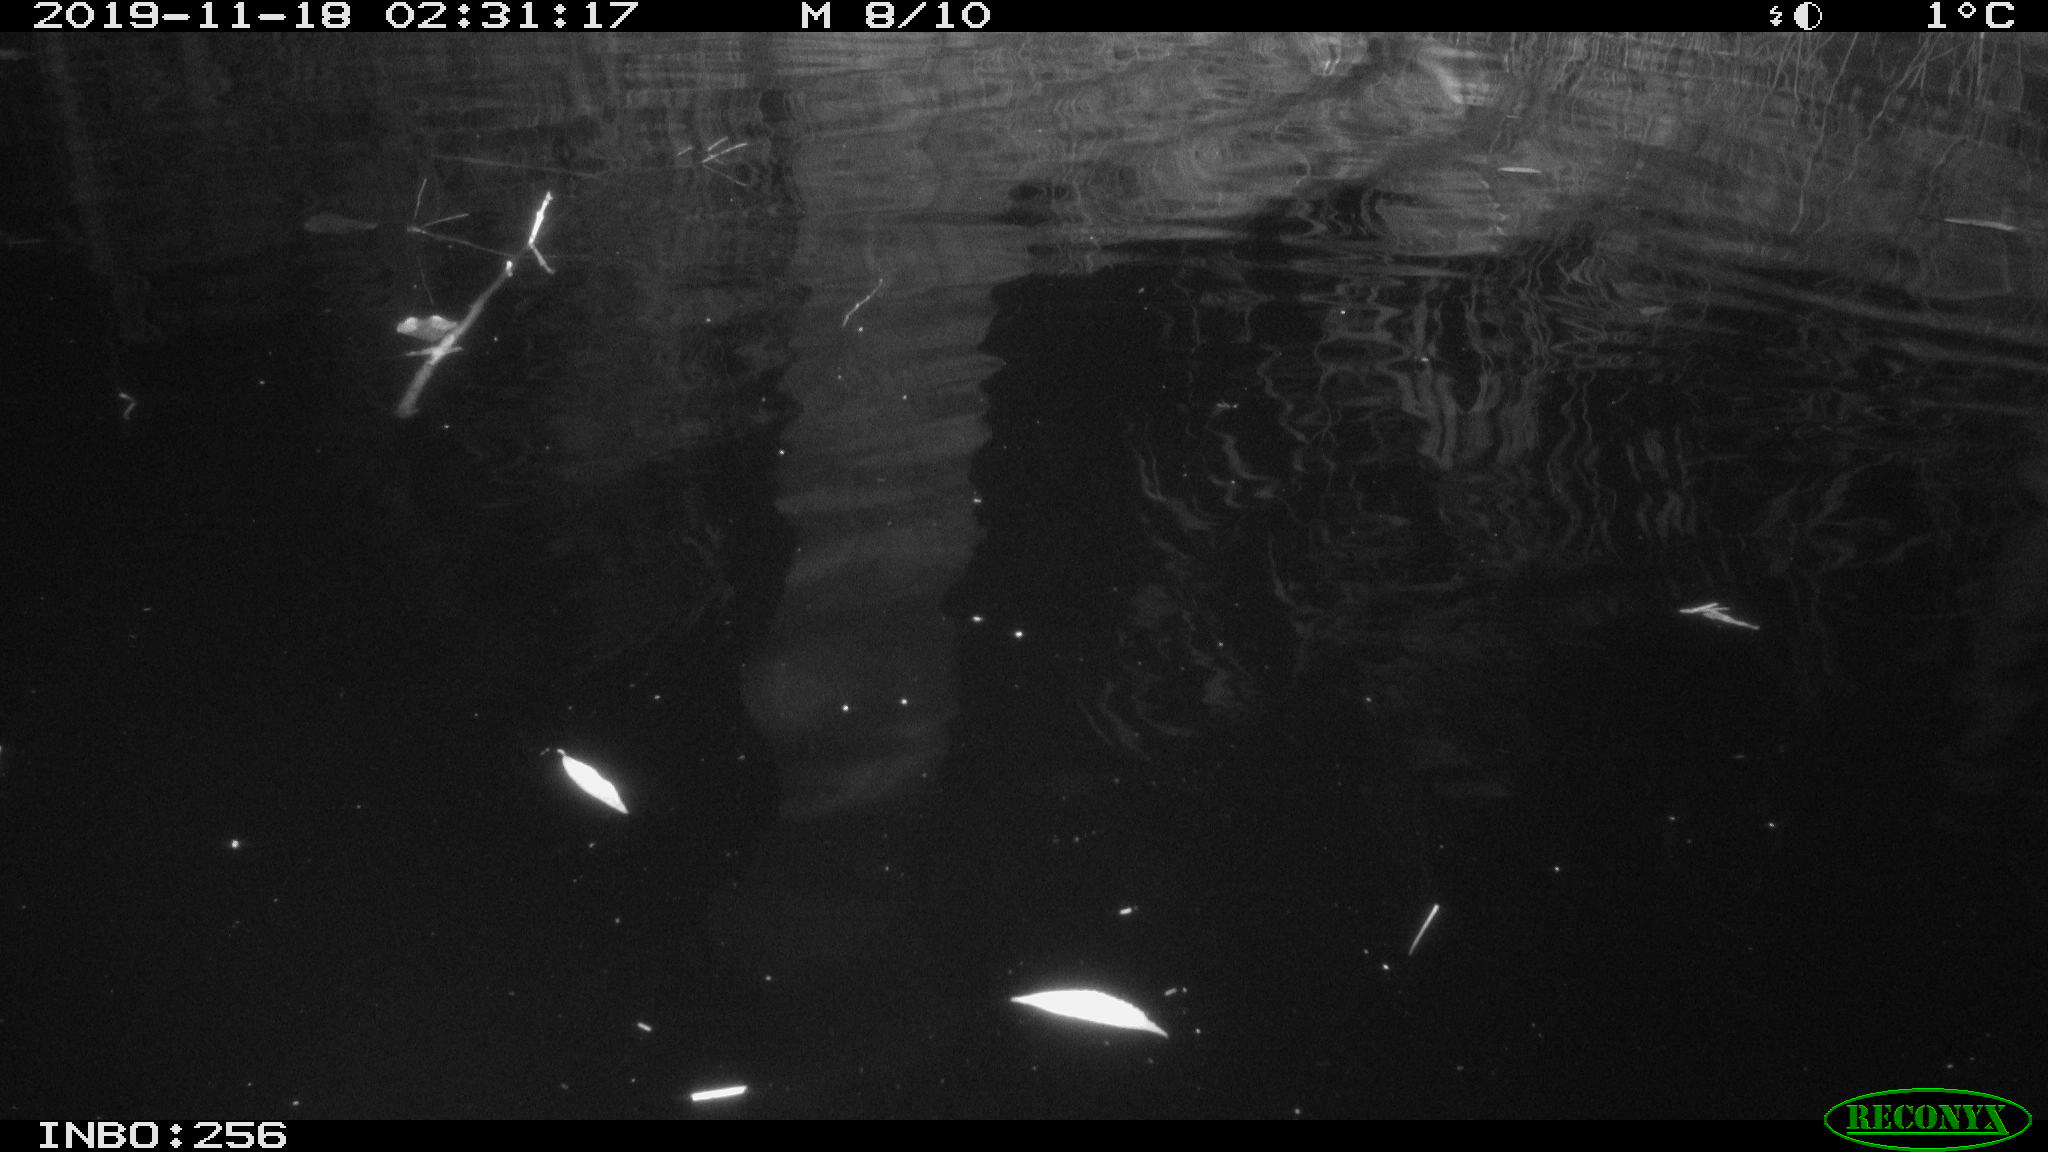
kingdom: Animalia
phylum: Chordata
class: Mammalia
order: Rodentia
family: Cricetidae
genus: Ondatra
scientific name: Ondatra zibethicus
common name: Muskrat
